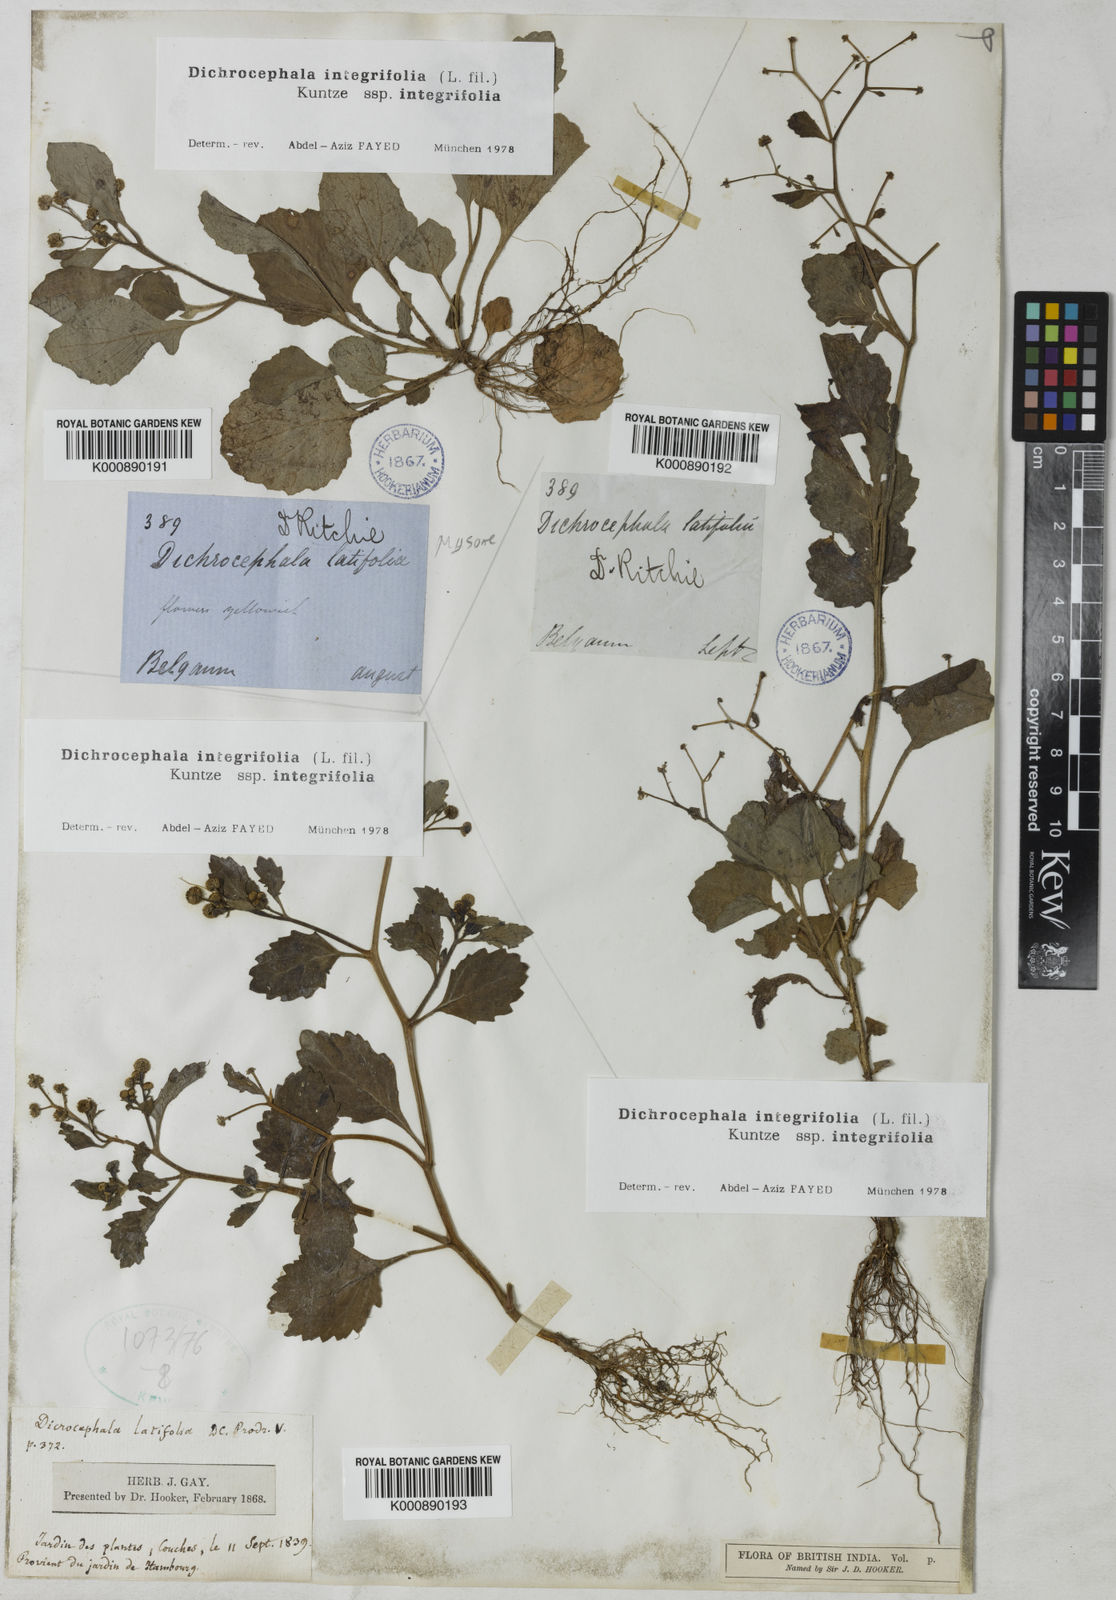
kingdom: Plantae
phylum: Tracheophyta
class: Magnoliopsida
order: Asterales
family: Asteraceae
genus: Dichrocephala
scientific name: Dichrocephala integrifolia
